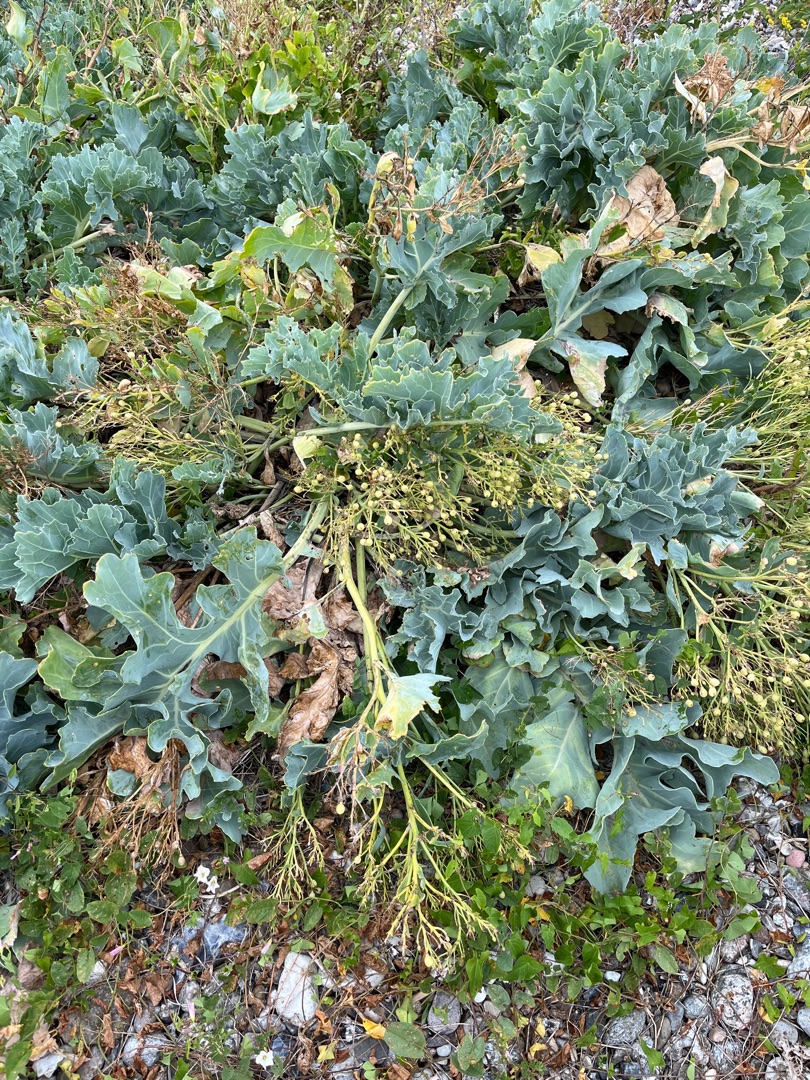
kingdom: Plantae
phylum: Tracheophyta
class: Magnoliopsida
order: Brassicales
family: Brassicaceae
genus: Crambe
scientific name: Crambe maritima
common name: Strandkål
